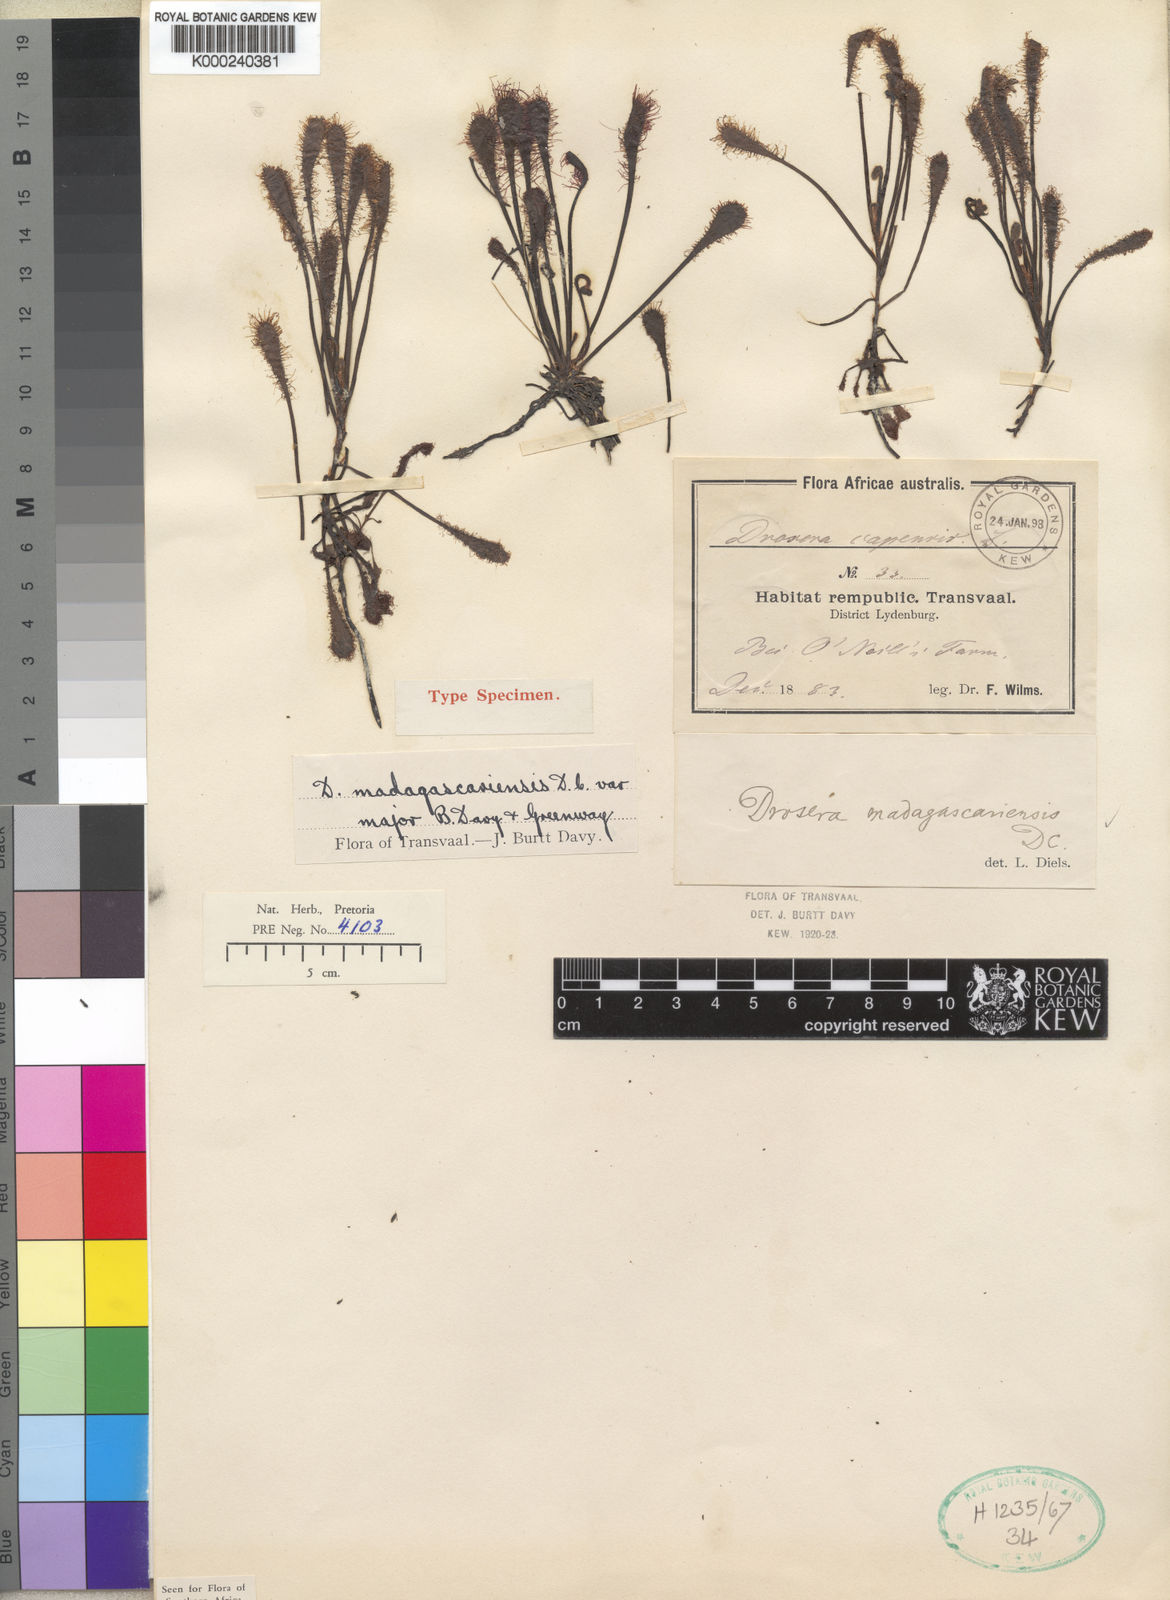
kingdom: Plantae
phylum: Tracheophyta
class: Magnoliopsida
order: Caryophyllales
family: Droseraceae
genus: Drosera
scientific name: Drosera madagascariensis
